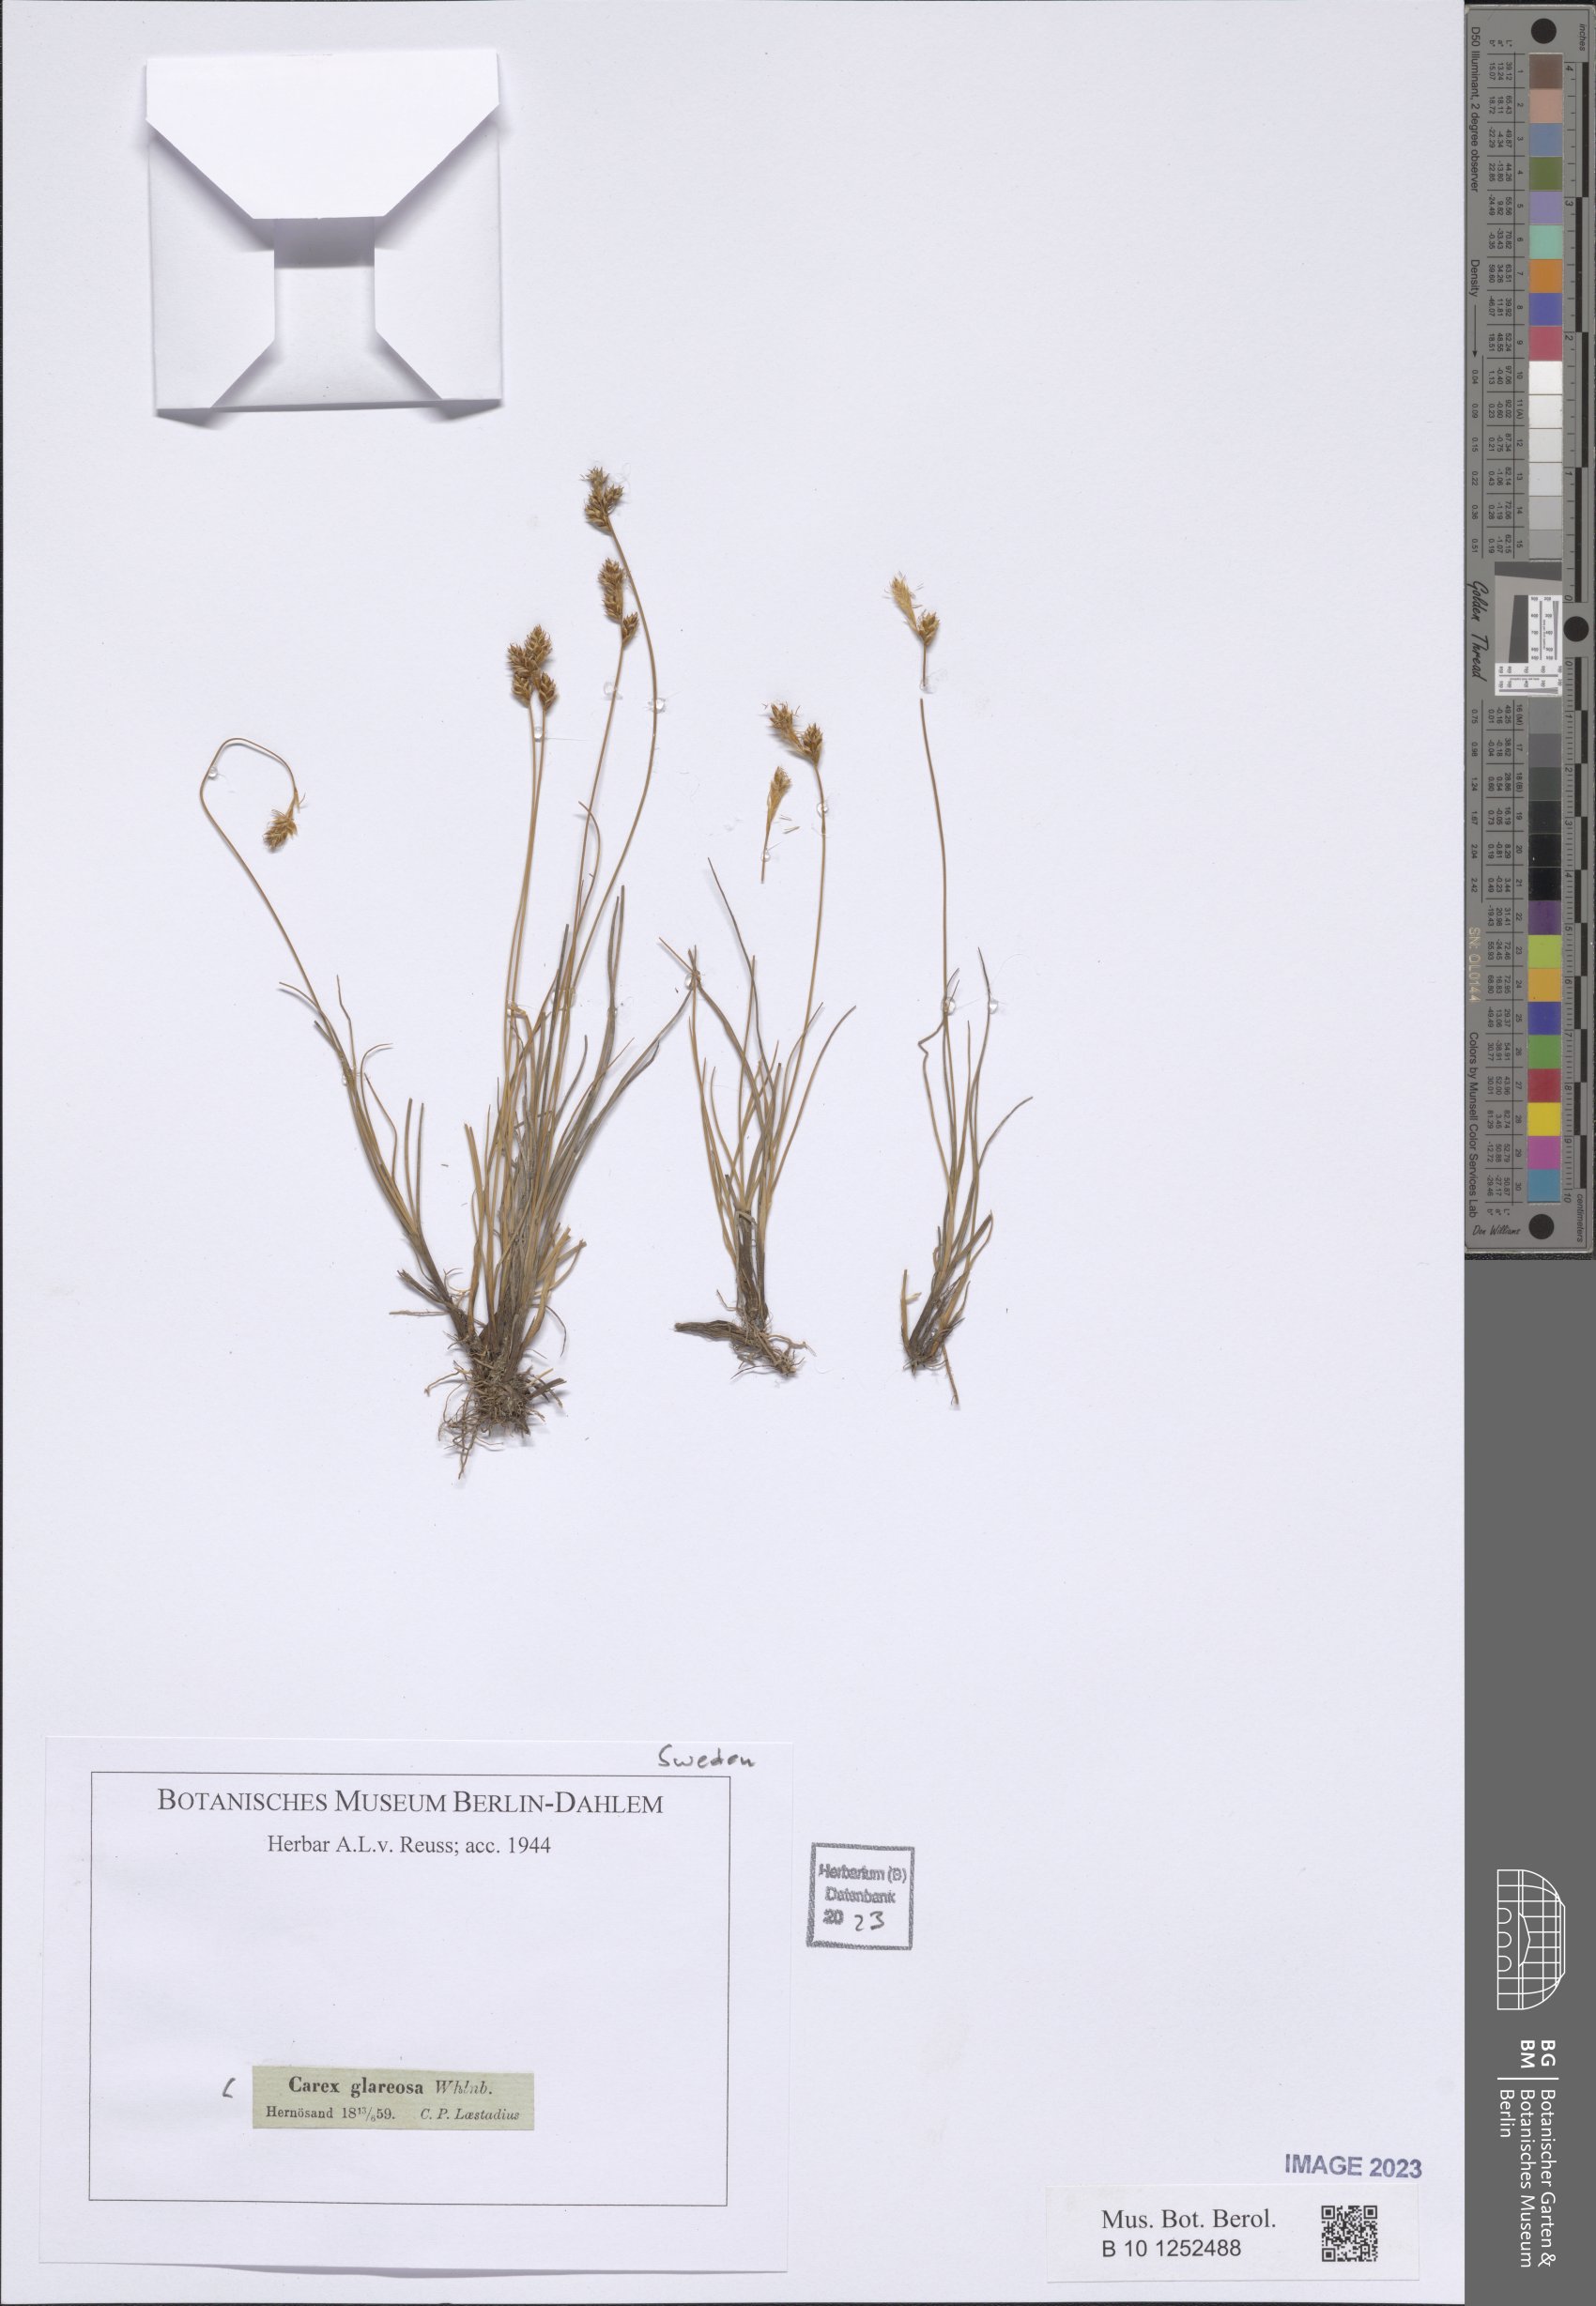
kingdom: Plantae
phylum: Tracheophyta
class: Liliopsida
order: Poales
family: Cyperaceae
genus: Carex
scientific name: Carex glareosa
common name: Clustered sedge
